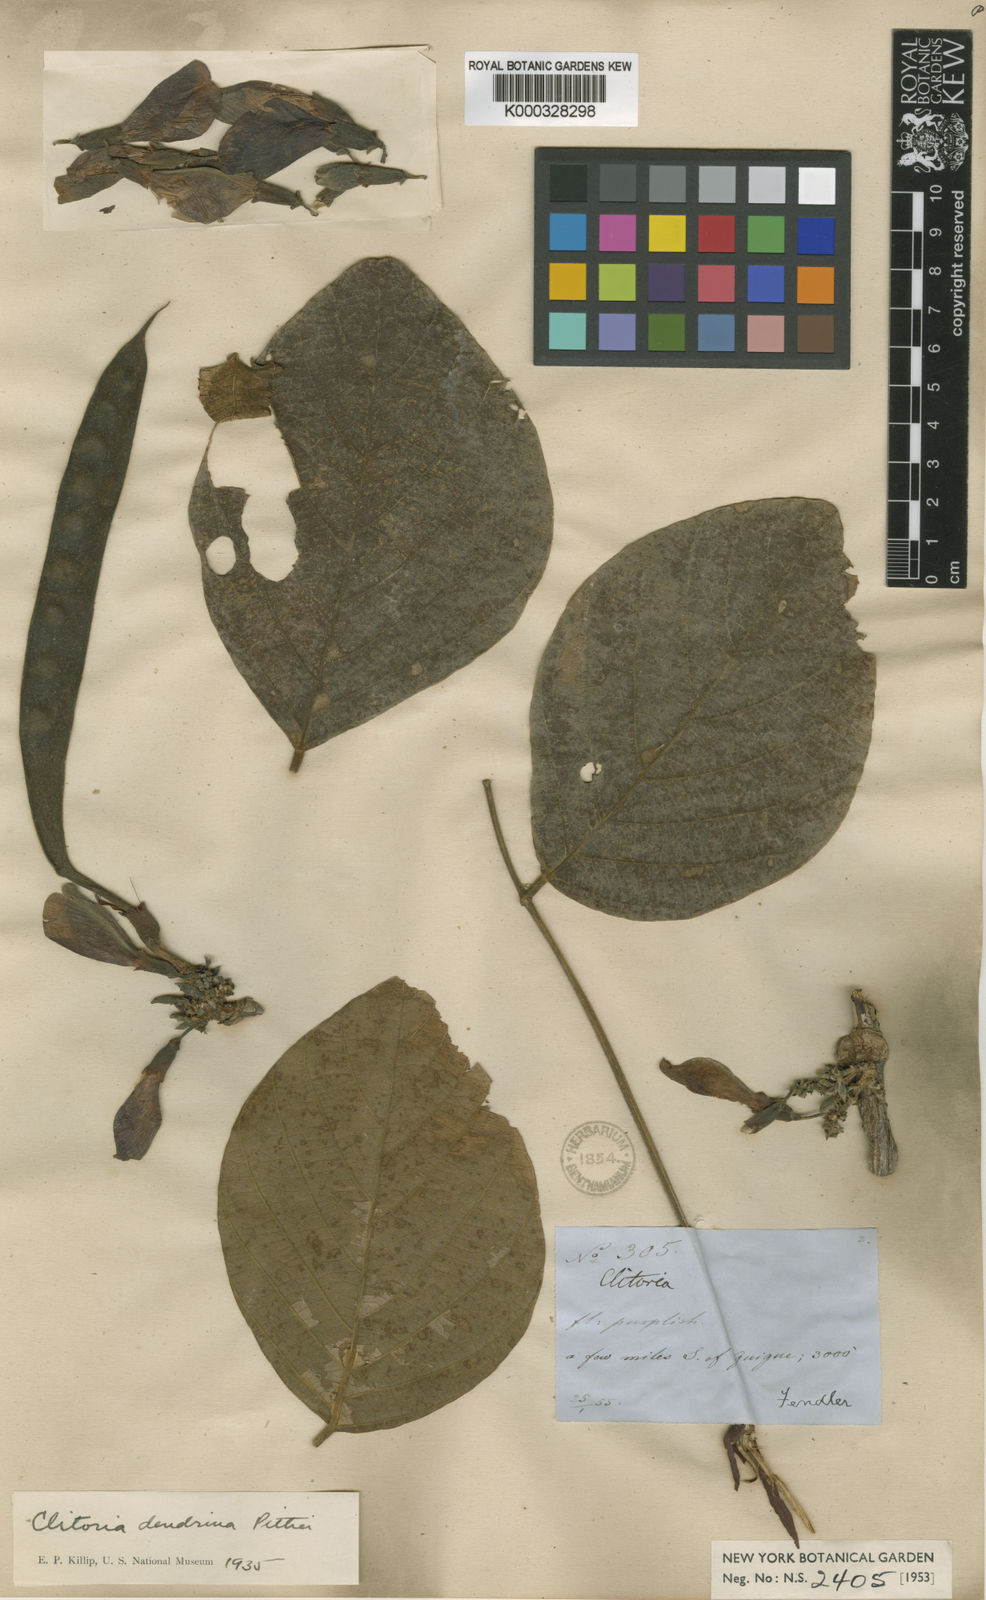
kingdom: Plantae
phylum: Tracheophyta
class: Magnoliopsida
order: Fabales
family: Fabaceae
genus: Clitoria
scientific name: Clitoria
